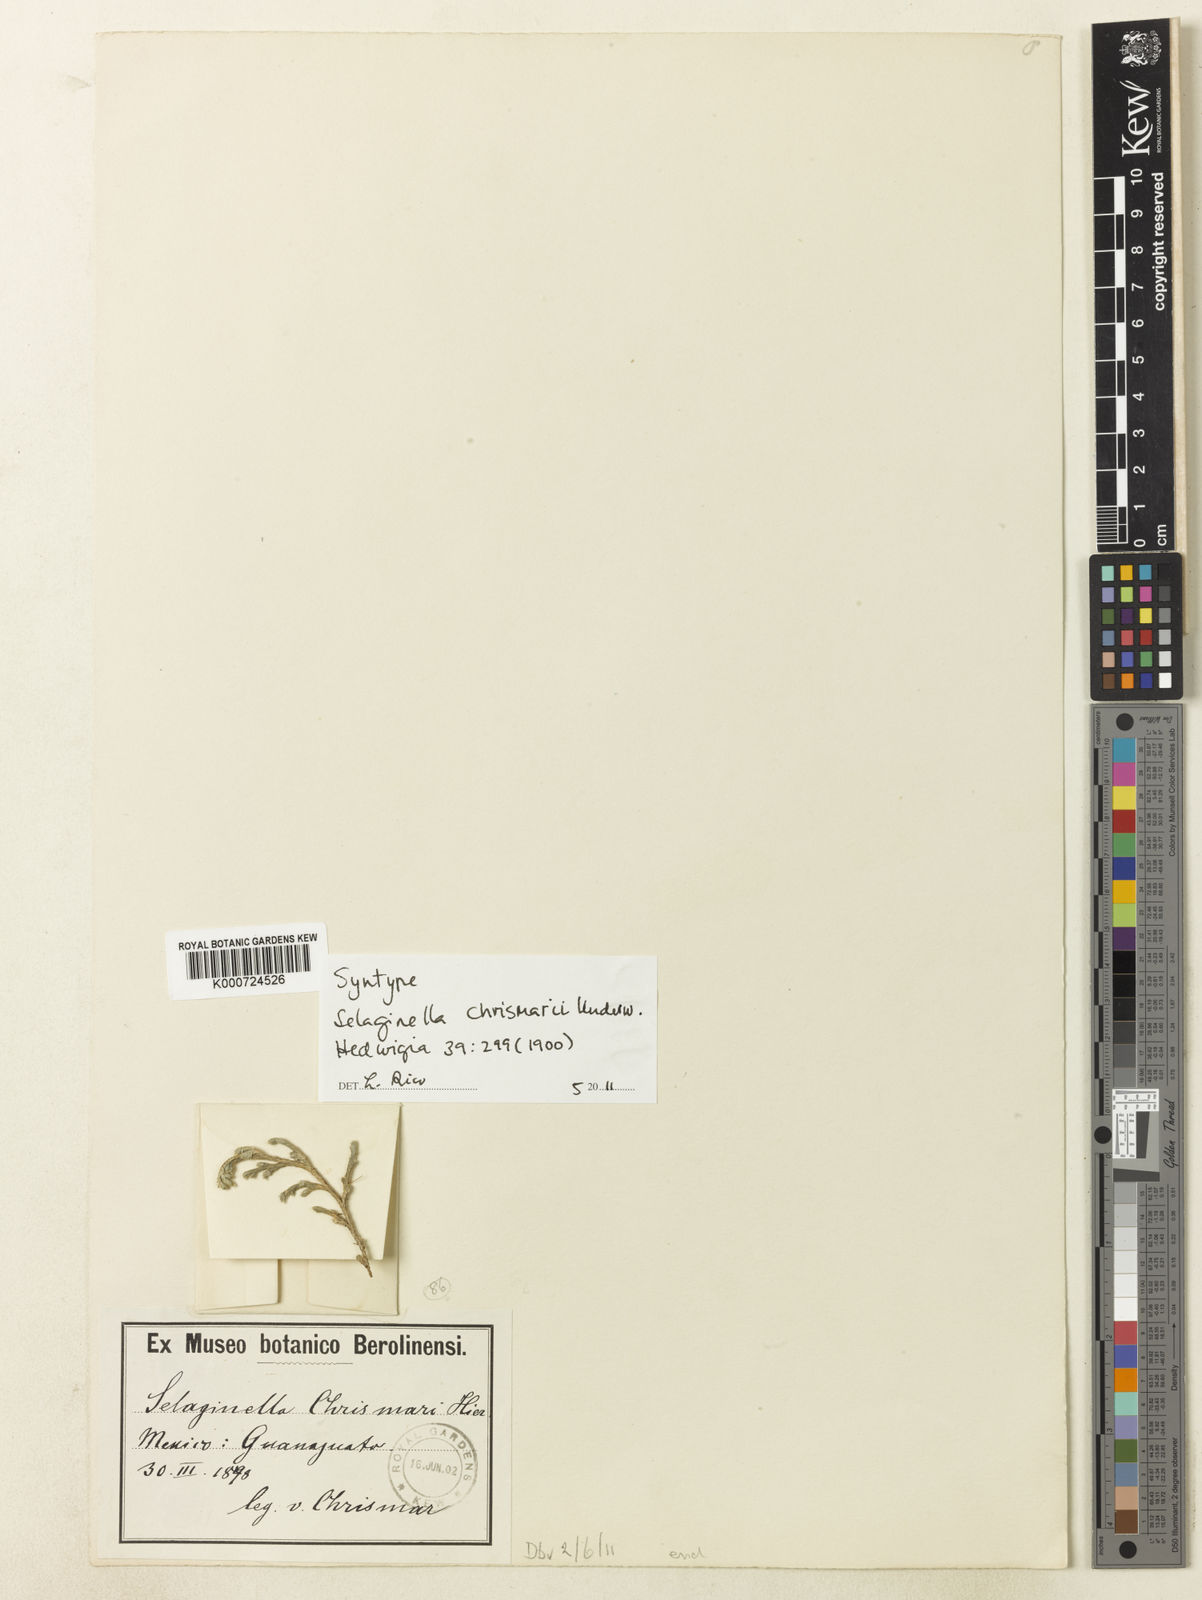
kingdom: Plantae
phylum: Tracheophyta
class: Lycopodiopsida
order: Selaginellales
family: Selaginellaceae
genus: Selaginella
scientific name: Selaginella
